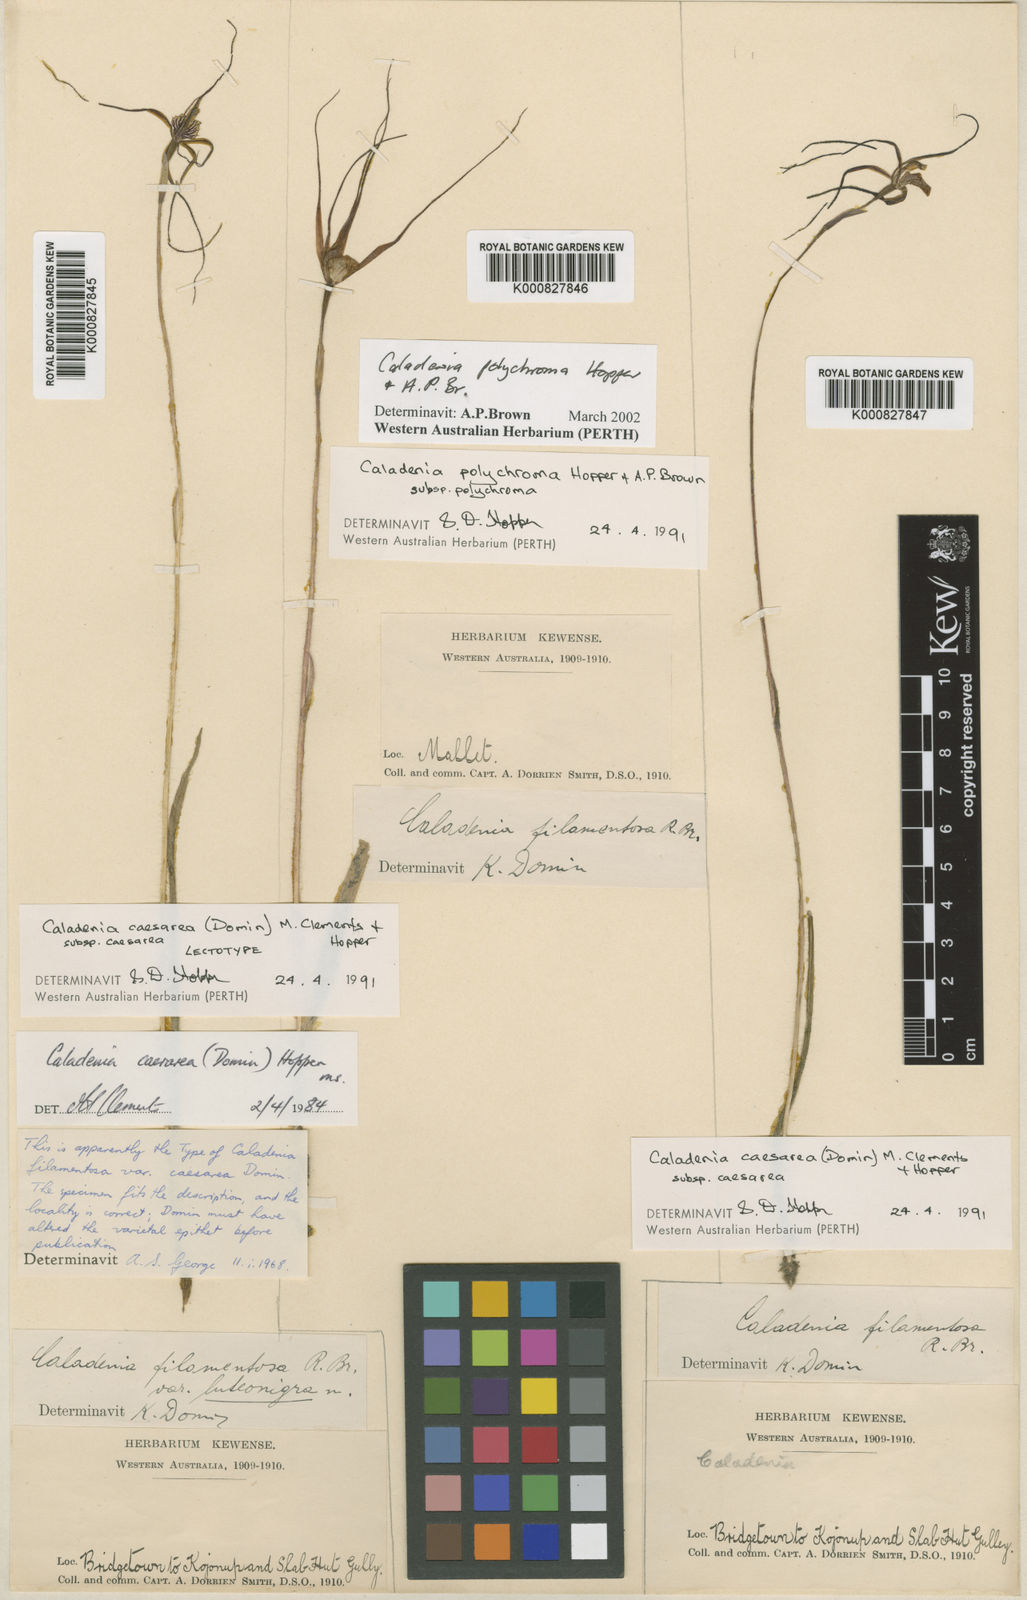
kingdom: Plantae
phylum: Tracheophyta
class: Liliopsida
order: Asparagales
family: Orchidaceae
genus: Caladenia
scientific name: Caladenia caesarea
